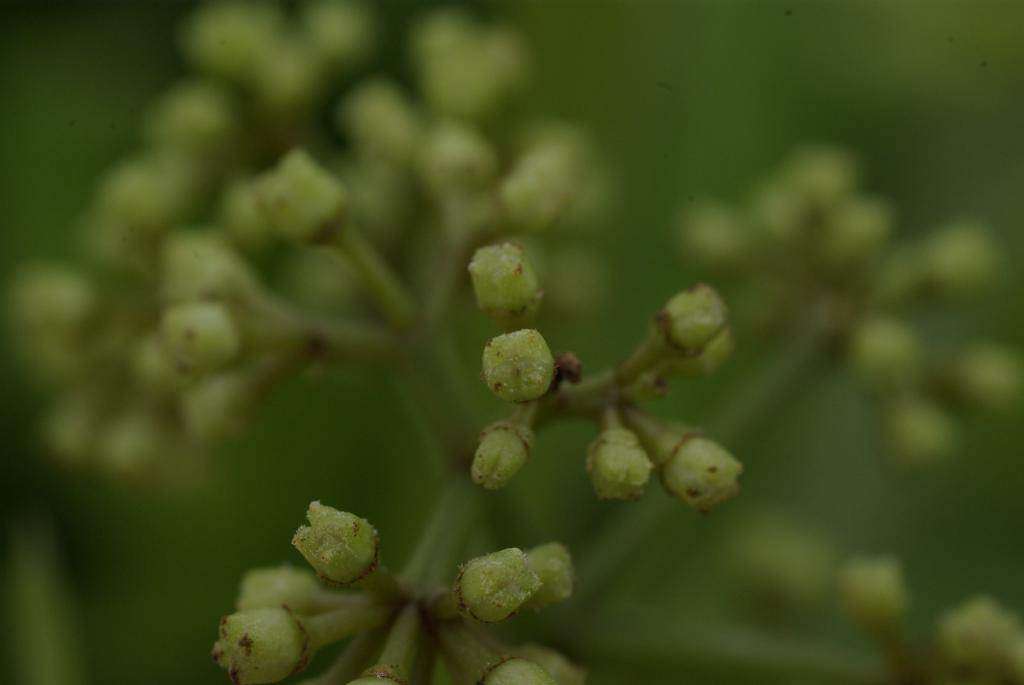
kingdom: Plantae
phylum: Tracheophyta
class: Magnoliopsida
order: Vitales
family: Vitaceae
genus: Tetrastigma
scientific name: Tetrastigma formosanum
